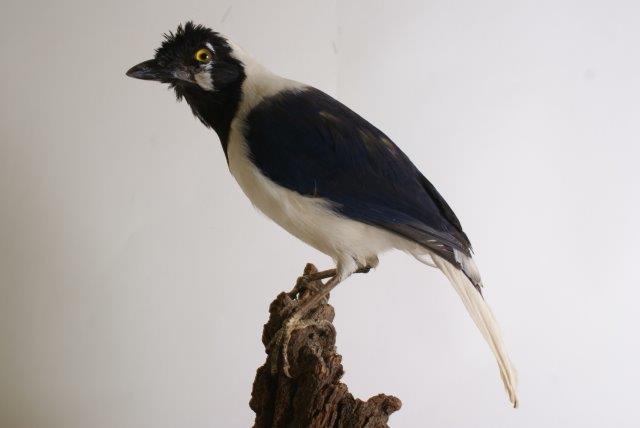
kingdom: Animalia
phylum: Chordata
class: Aves
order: Passeriformes
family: Corvidae
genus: Cyanocorax
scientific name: Cyanocorax mystacalis
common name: White-tailed jay
